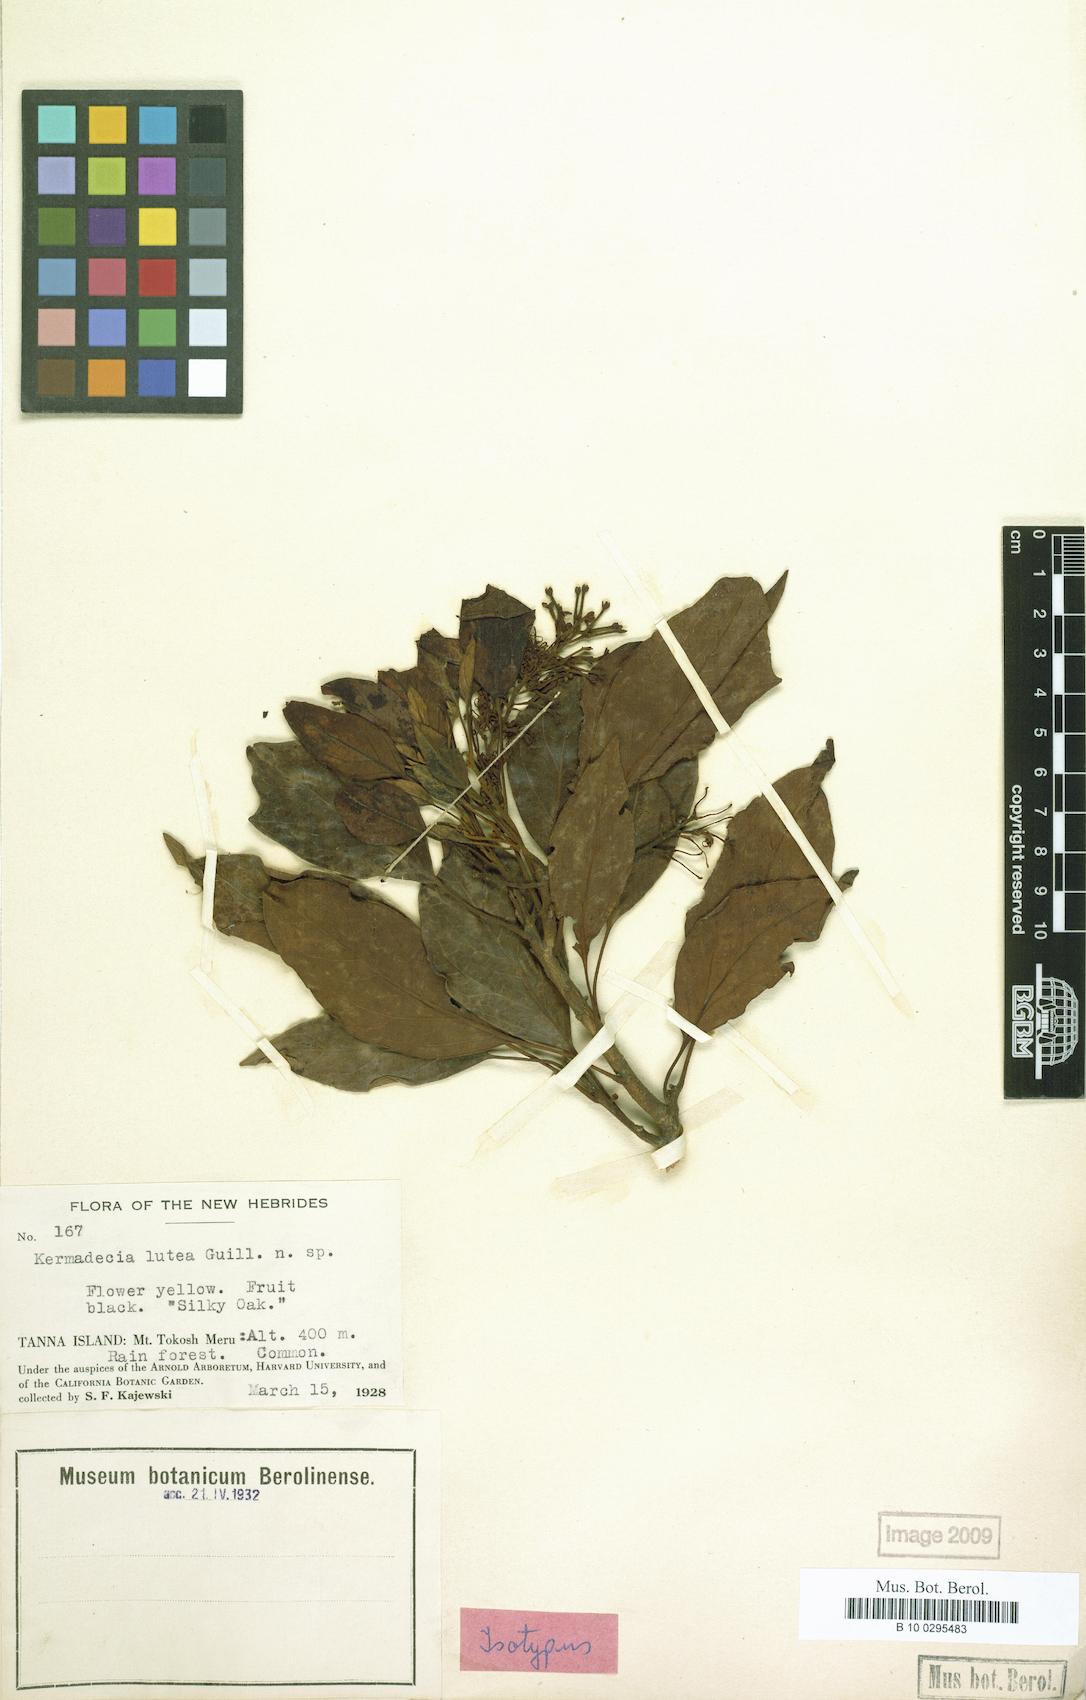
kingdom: Plantae
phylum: Tracheophyta
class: Magnoliopsida
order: Proteales
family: Proteaceae
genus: Turrillia
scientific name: Turrillia lutea
